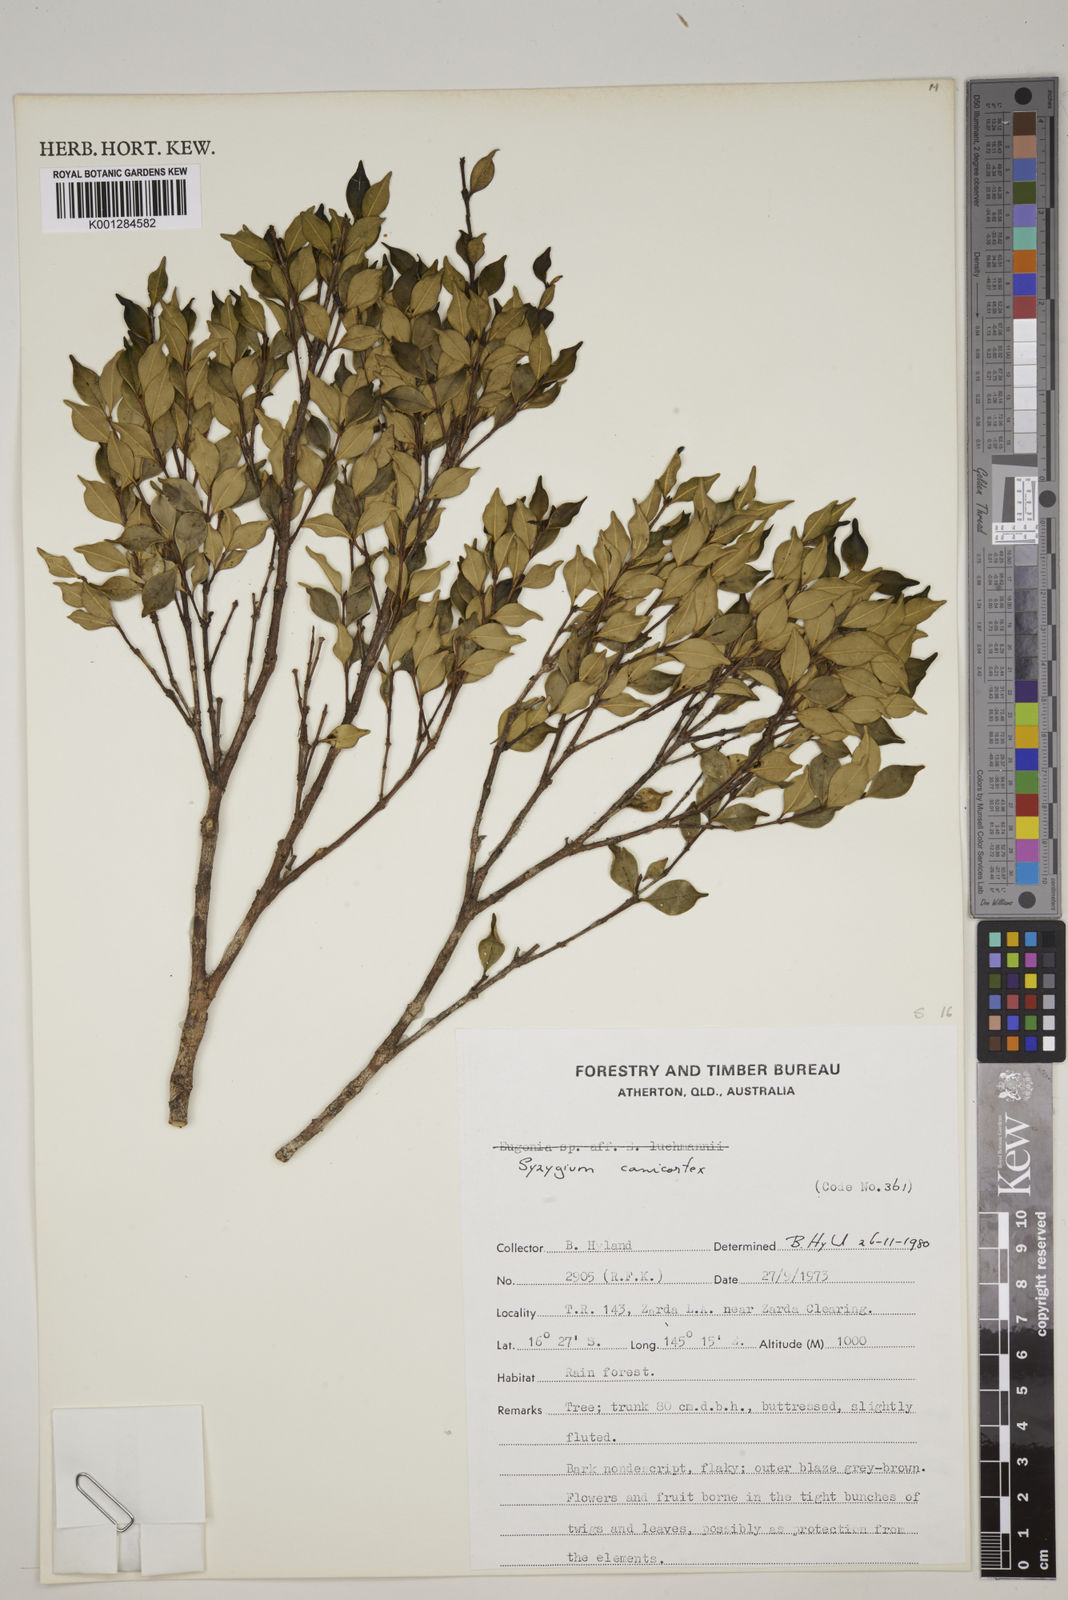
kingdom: Plantae
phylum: Tracheophyta
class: Magnoliopsida
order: Myrtales
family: Myrtaceae
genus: Syzygium
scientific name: Syzygium canicortex
